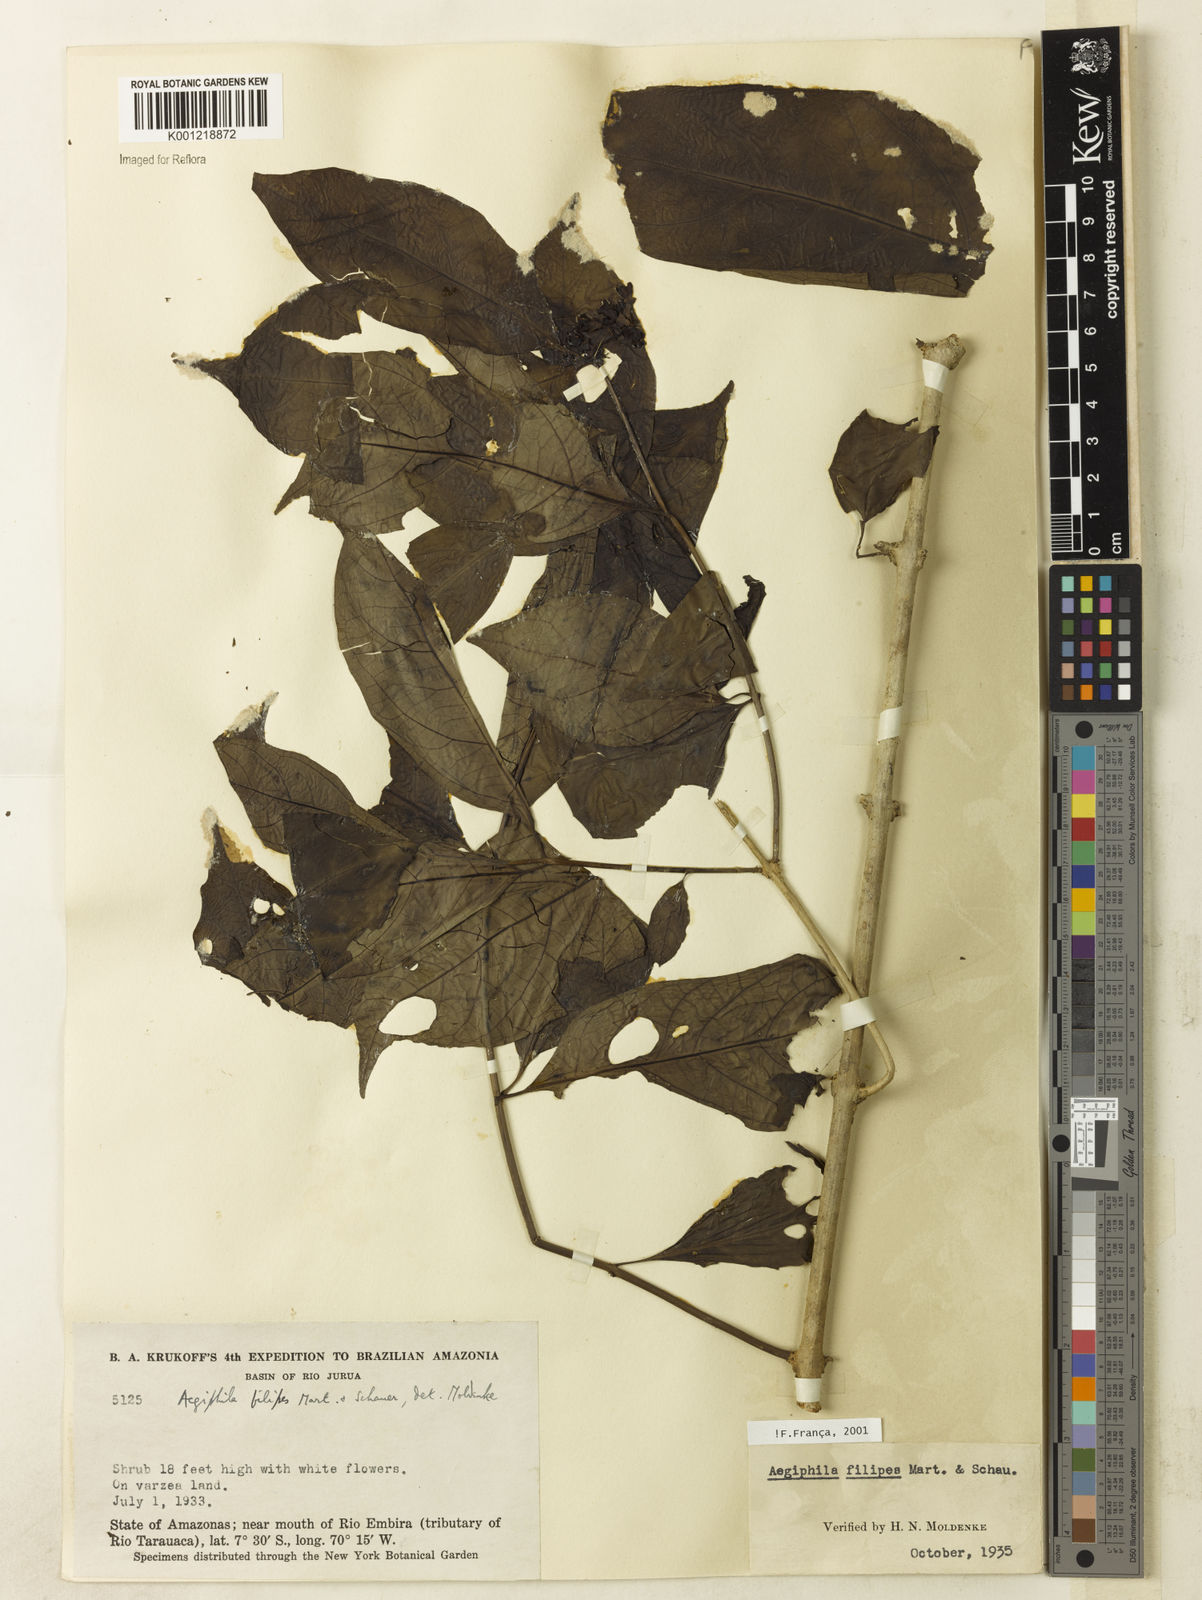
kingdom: Plantae
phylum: Tracheophyta
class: Magnoliopsida
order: Lamiales
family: Lamiaceae
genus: Aegiphila
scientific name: Aegiphila filipes
